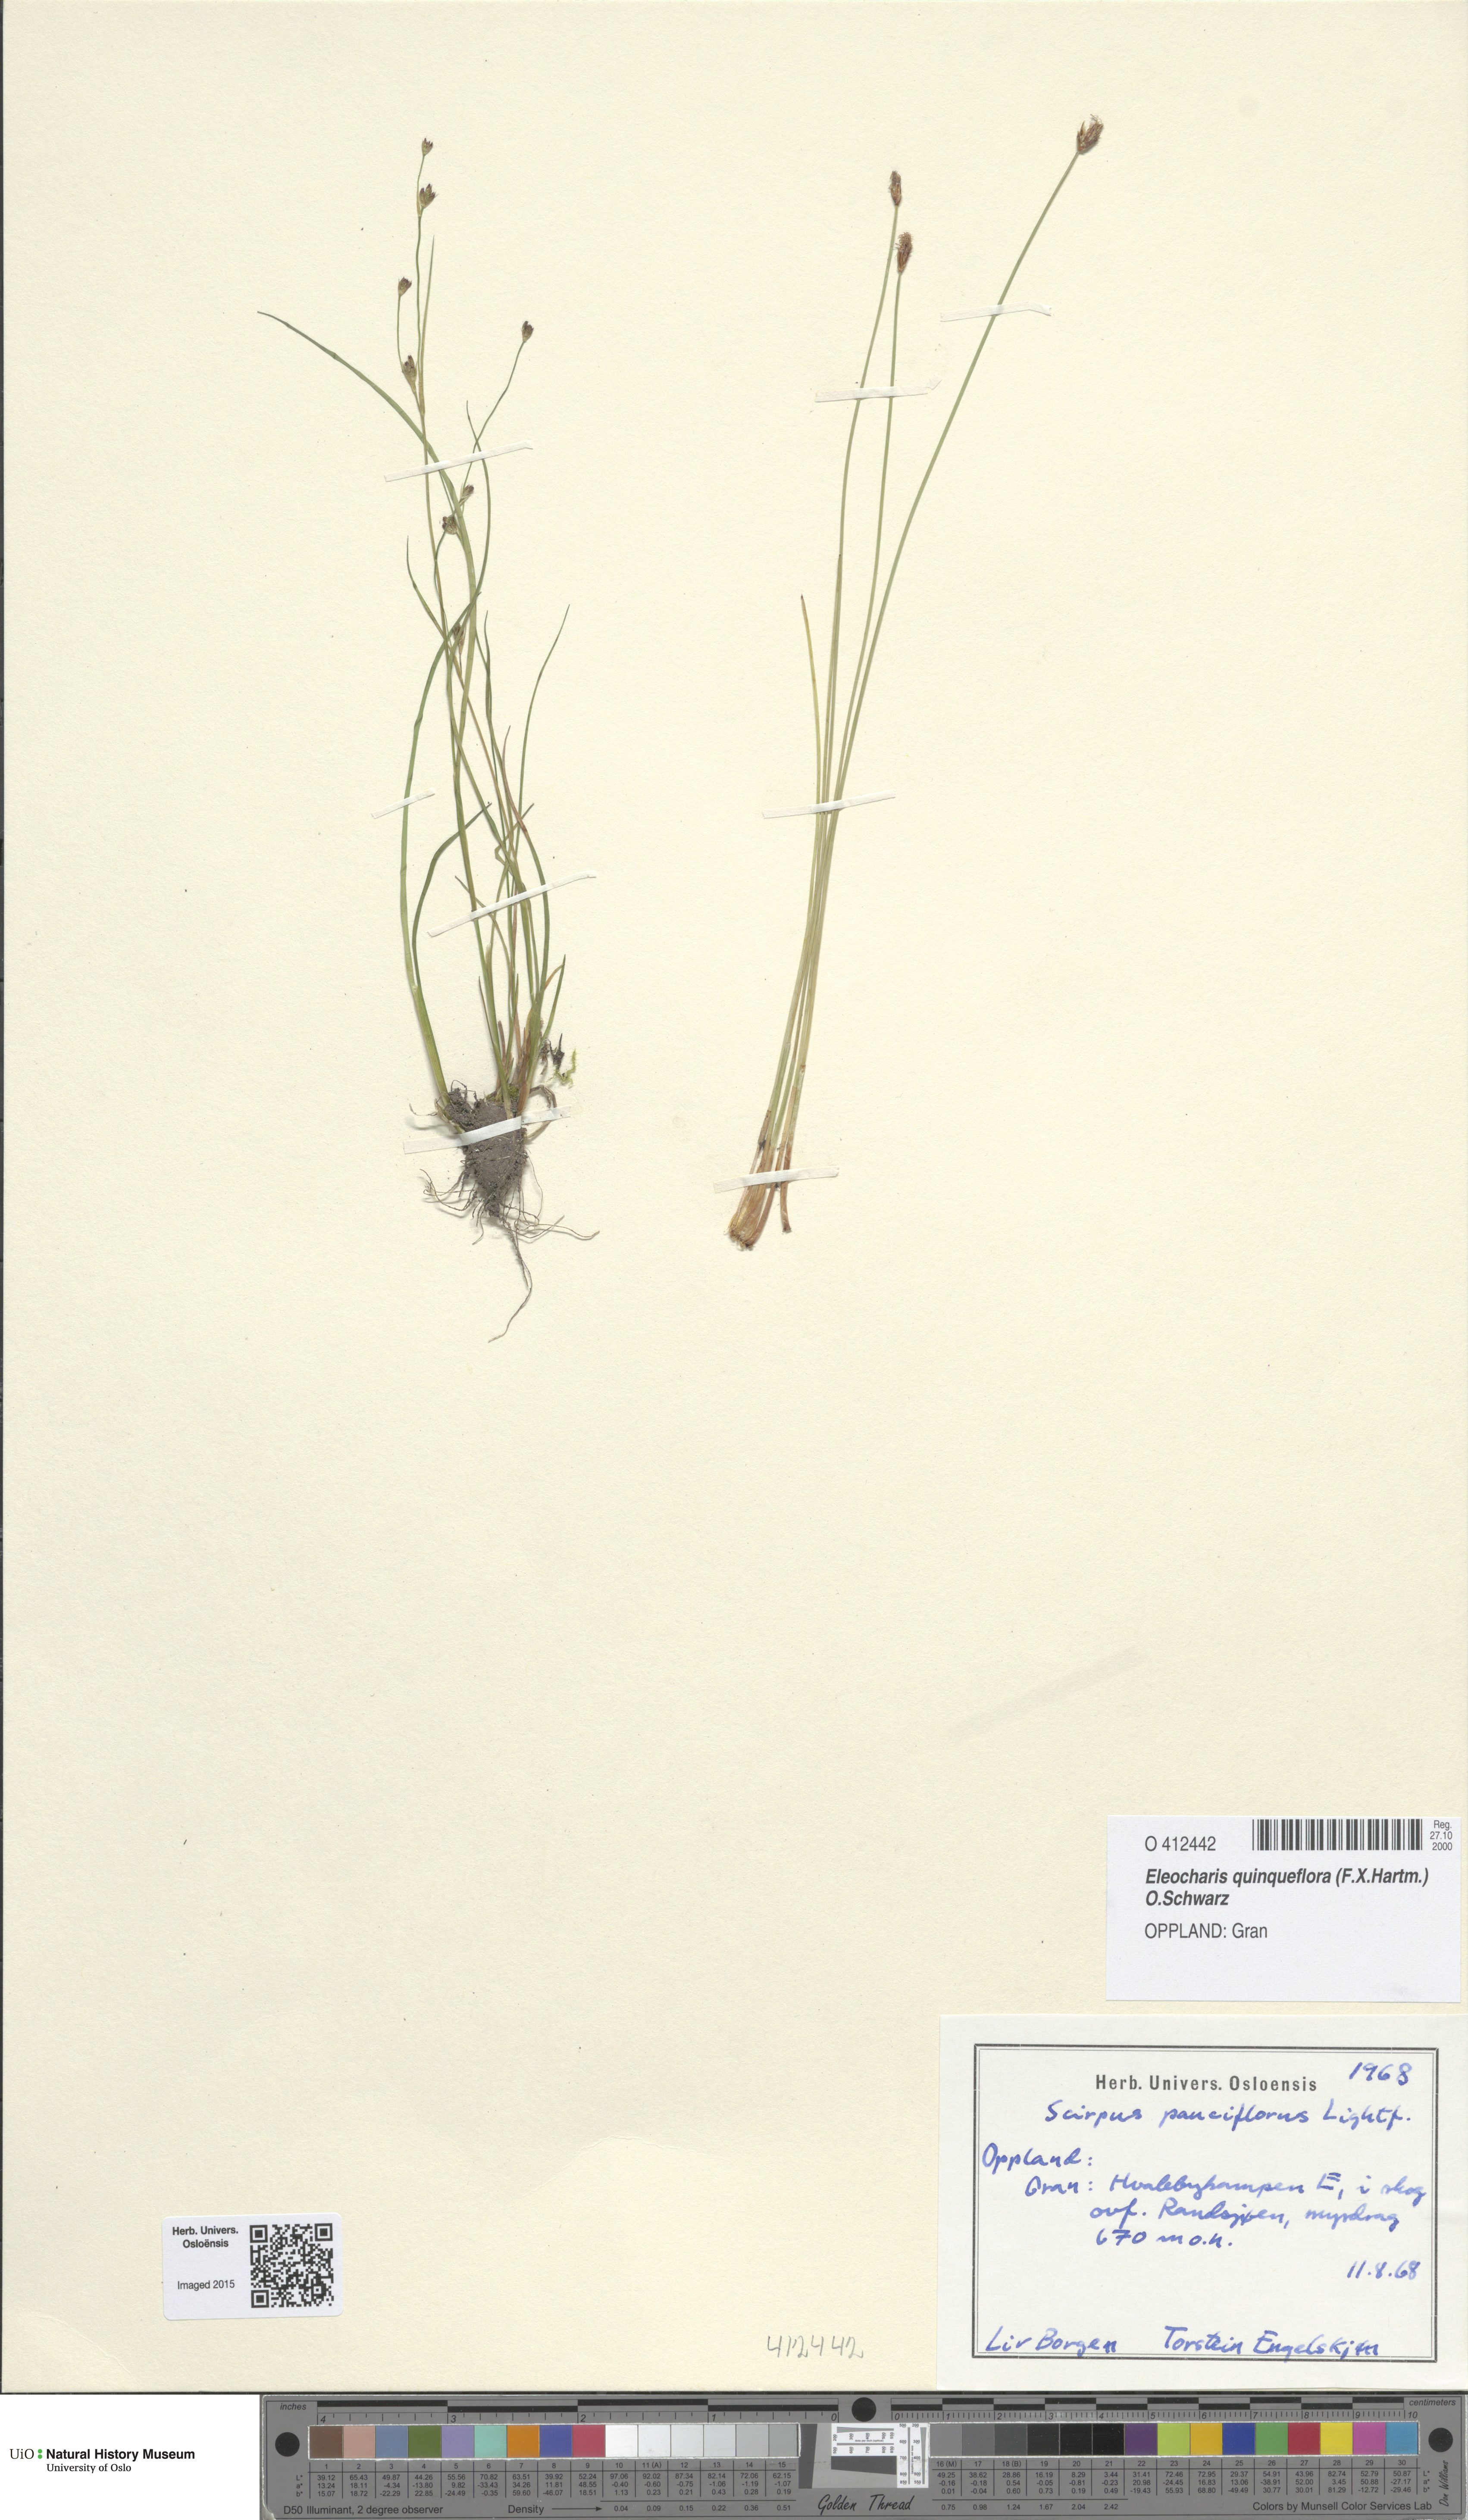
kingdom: Plantae
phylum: Tracheophyta
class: Liliopsida
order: Poales
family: Cyperaceae
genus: Eleocharis
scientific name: Eleocharis quinqueflora
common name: Few-flowered spike-rush
